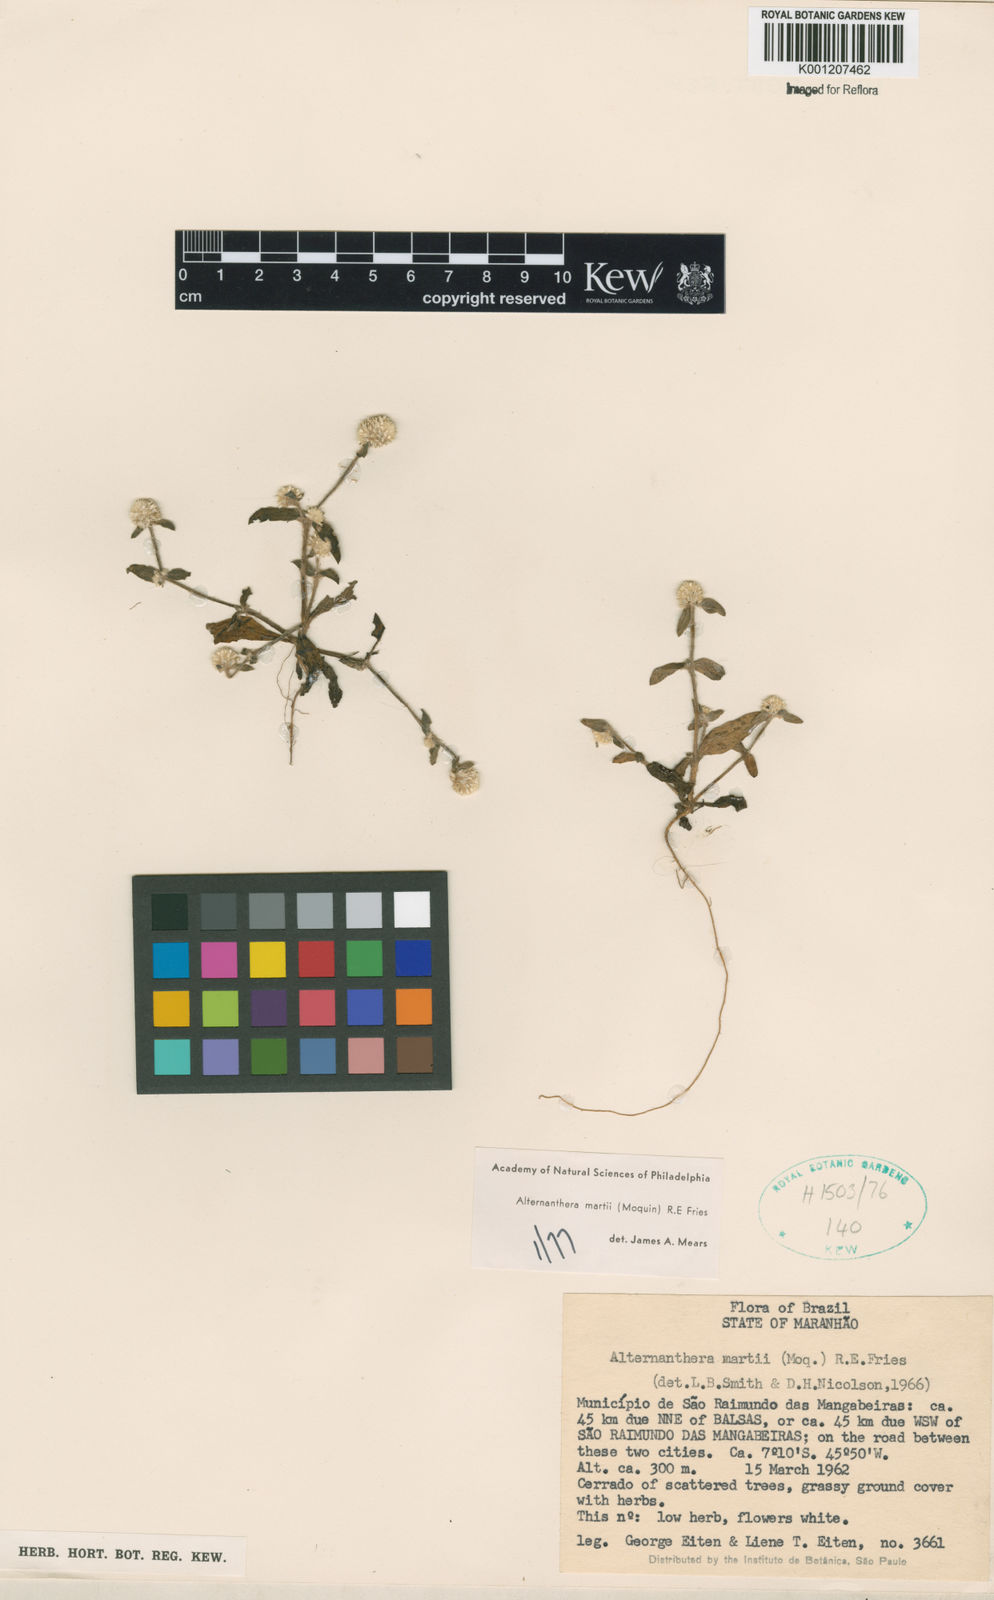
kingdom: Plantae
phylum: Tracheophyta
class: Magnoliopsida
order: Caryophyllales
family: Amaranthaceae
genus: Alternanthera
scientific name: Alternanthera martii
